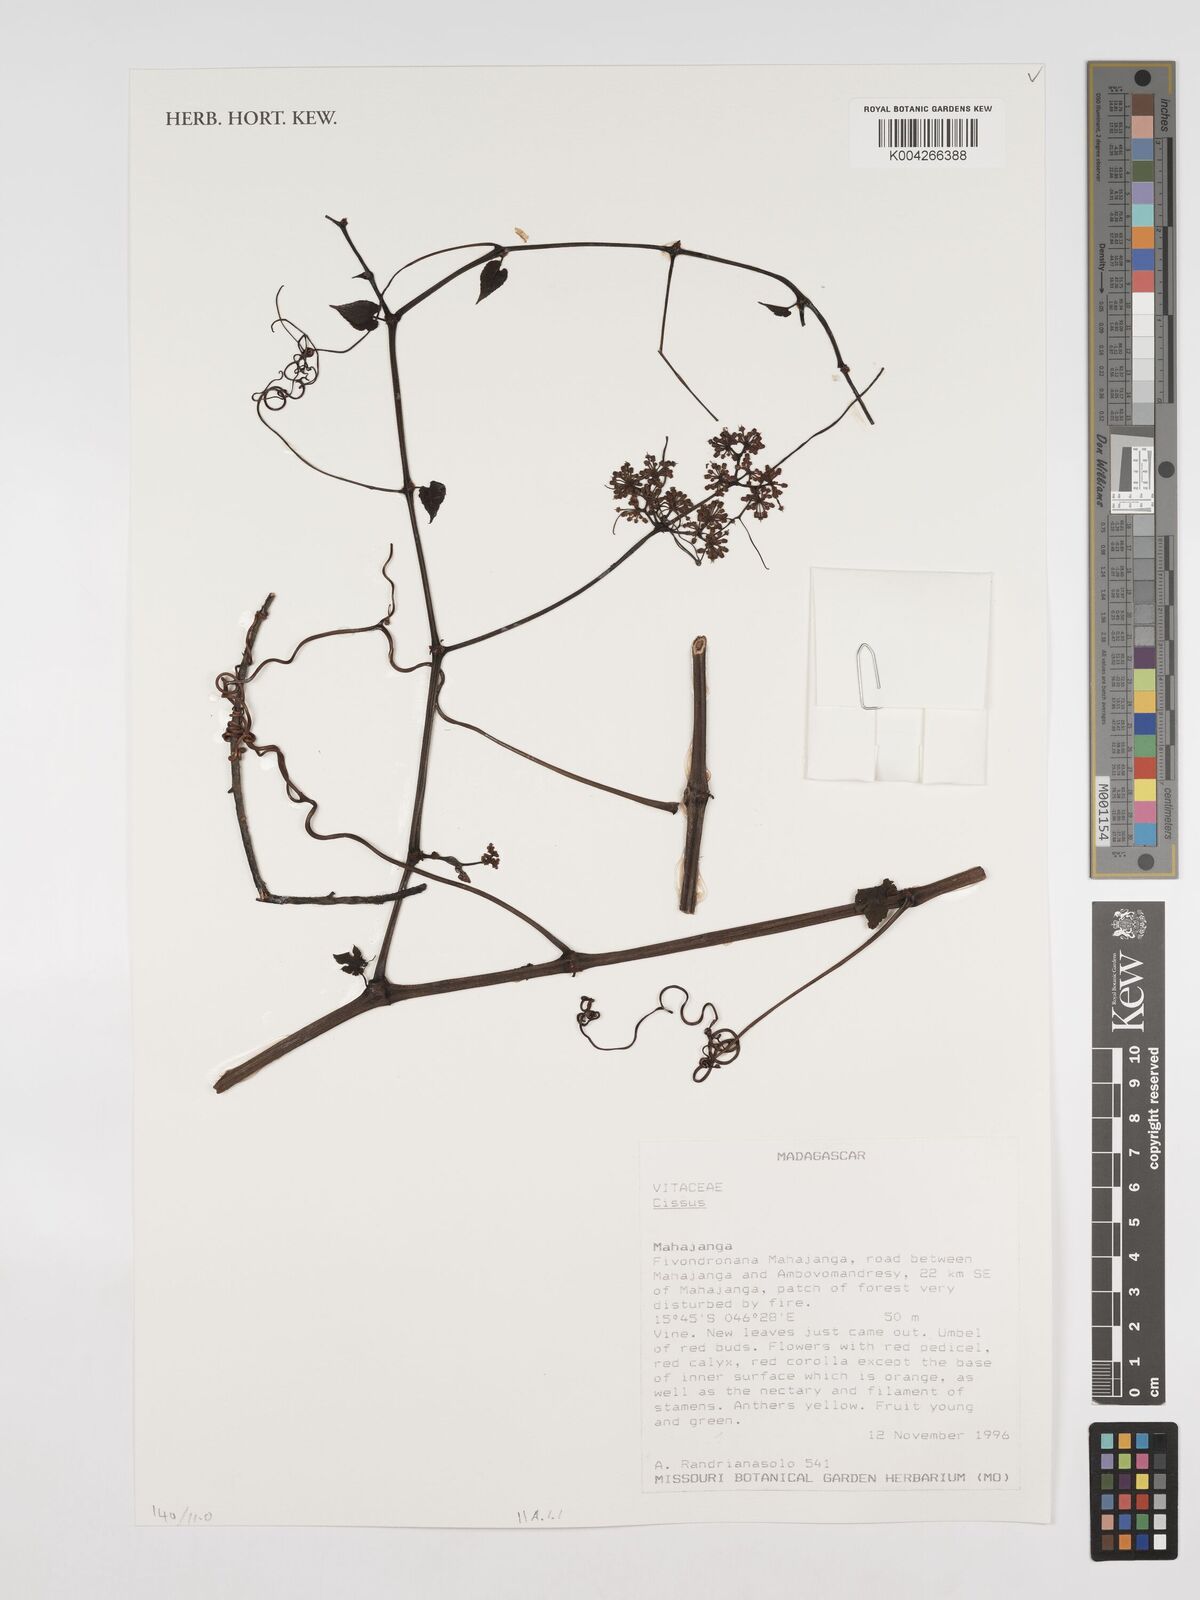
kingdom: Plantae
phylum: Tracheophyta
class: Magnoliopsida
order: Vitales
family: Vitaceae
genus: Cissus
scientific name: Cissus
